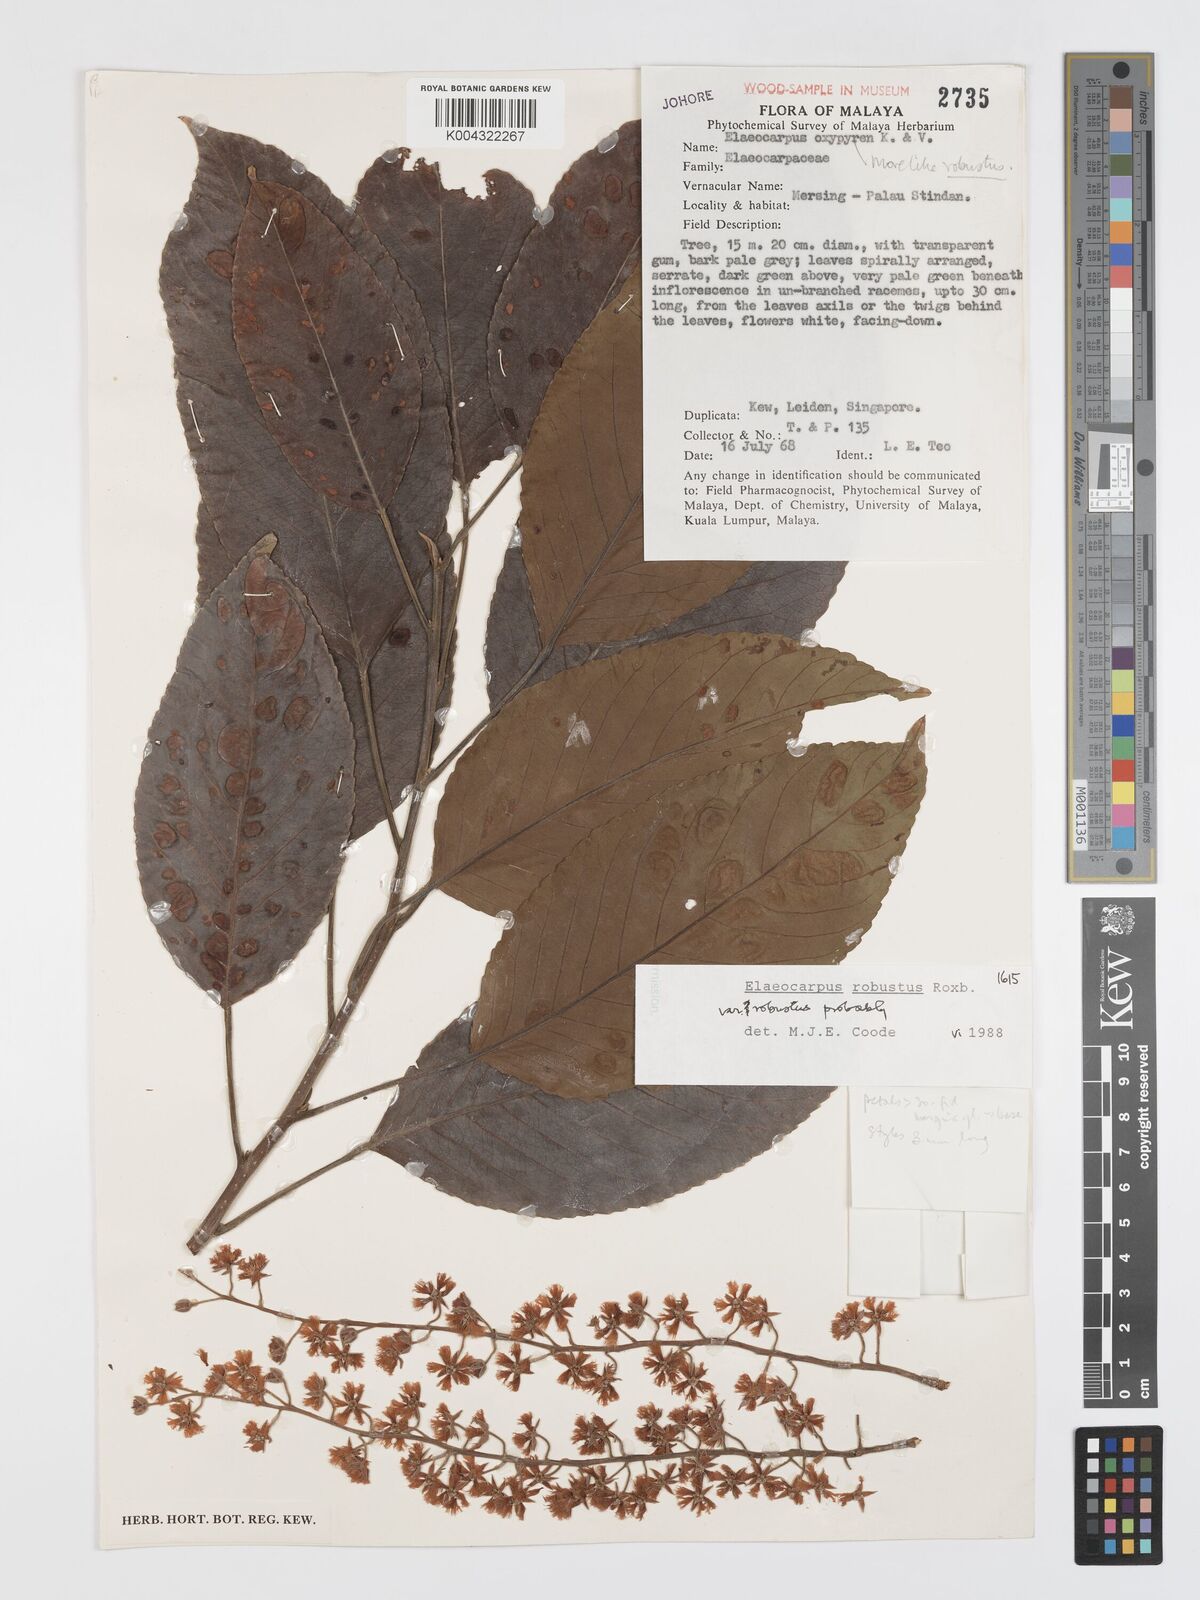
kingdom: Plantae
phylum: Tracheophyta
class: Magnoliopsida
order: Oxalidales
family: Elaeocarpaceae
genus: Elaeocarpus
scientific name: Elaeocarpus robustus
